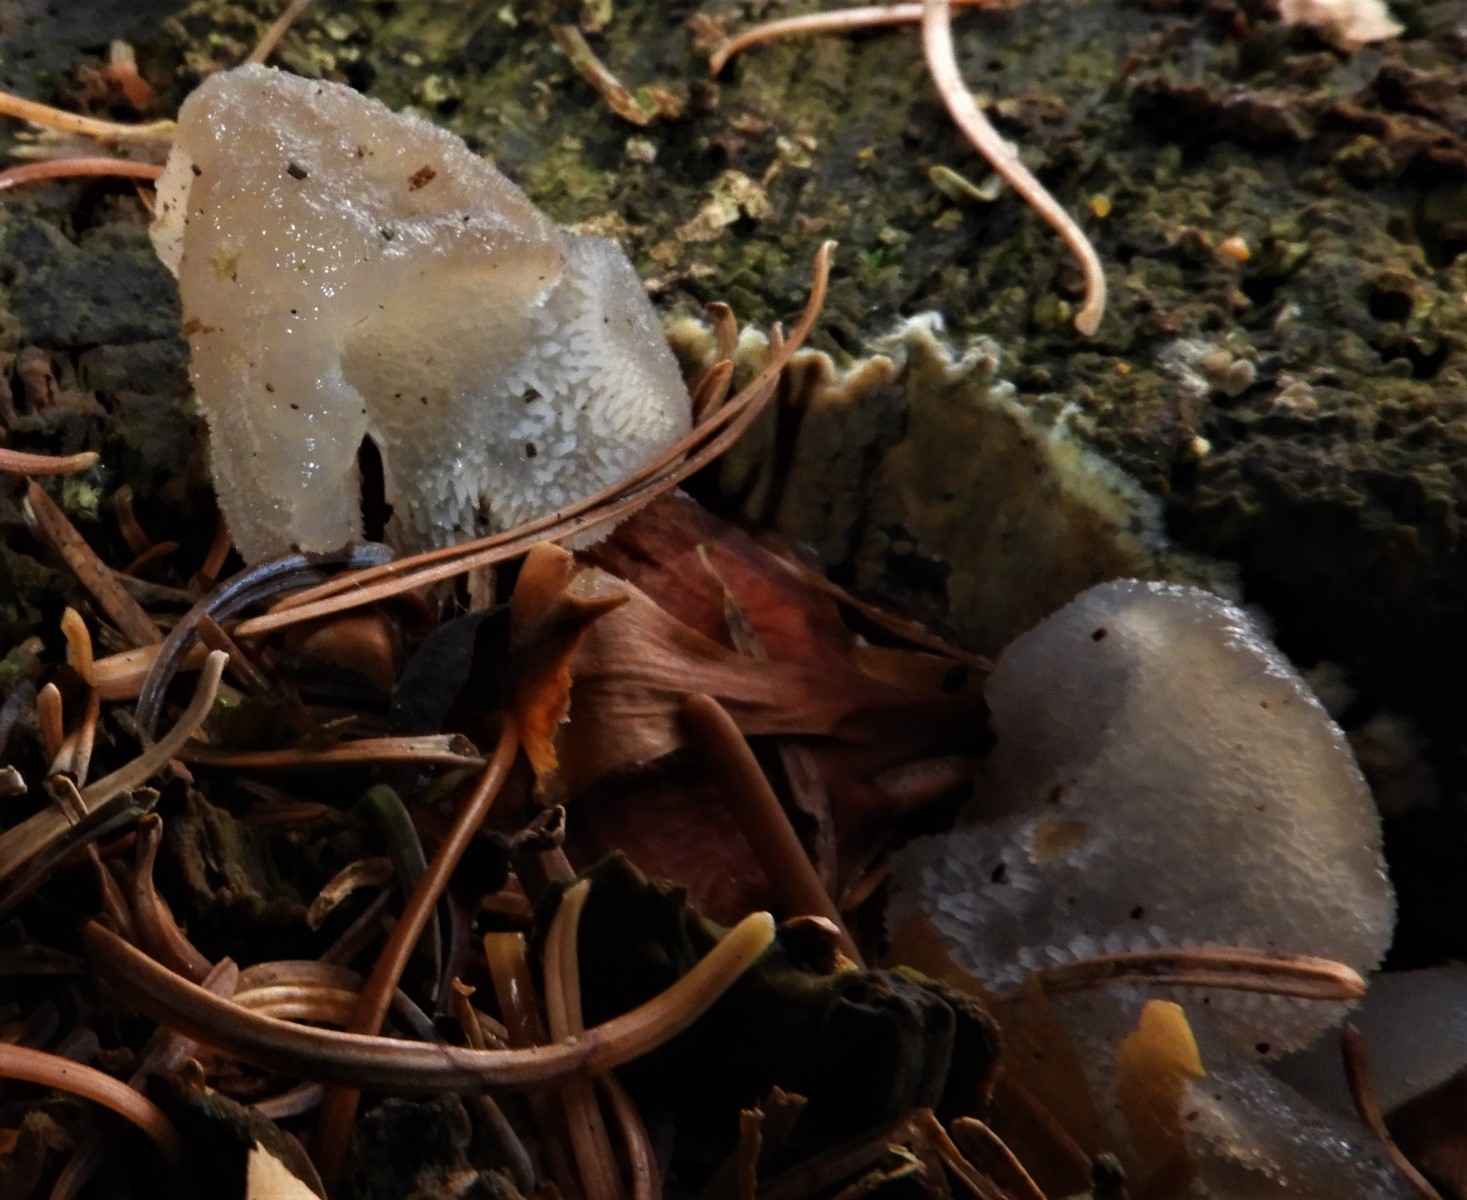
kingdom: Fungi
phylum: Basidiomycota
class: Agaricomycetes
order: Auriculariales
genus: Pseudohydnum
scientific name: Pseudohydnum gelatinosum
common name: bævretand
